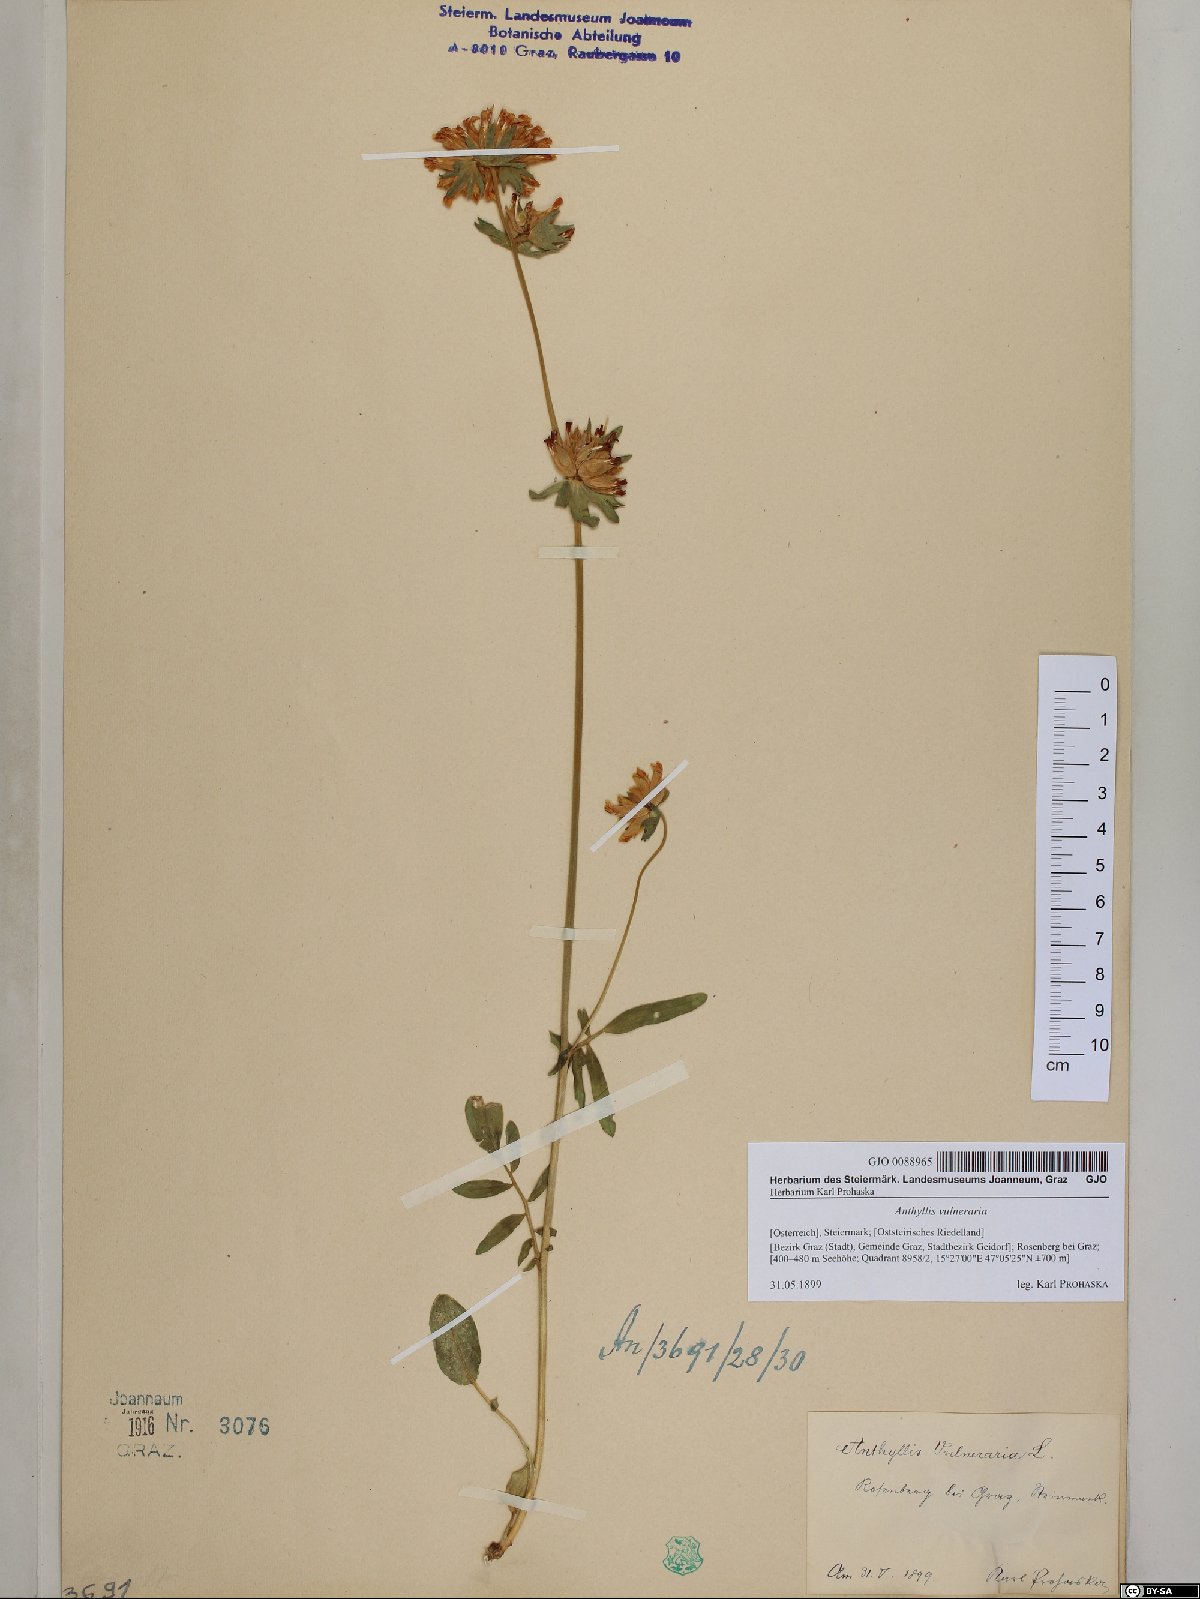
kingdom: Plantae
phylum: Tracheophyta
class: Magnoliopsida
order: Fabales
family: Fabaceae
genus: Anthyllis
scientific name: Anthyllis vulneraria
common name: Kidney vetch
